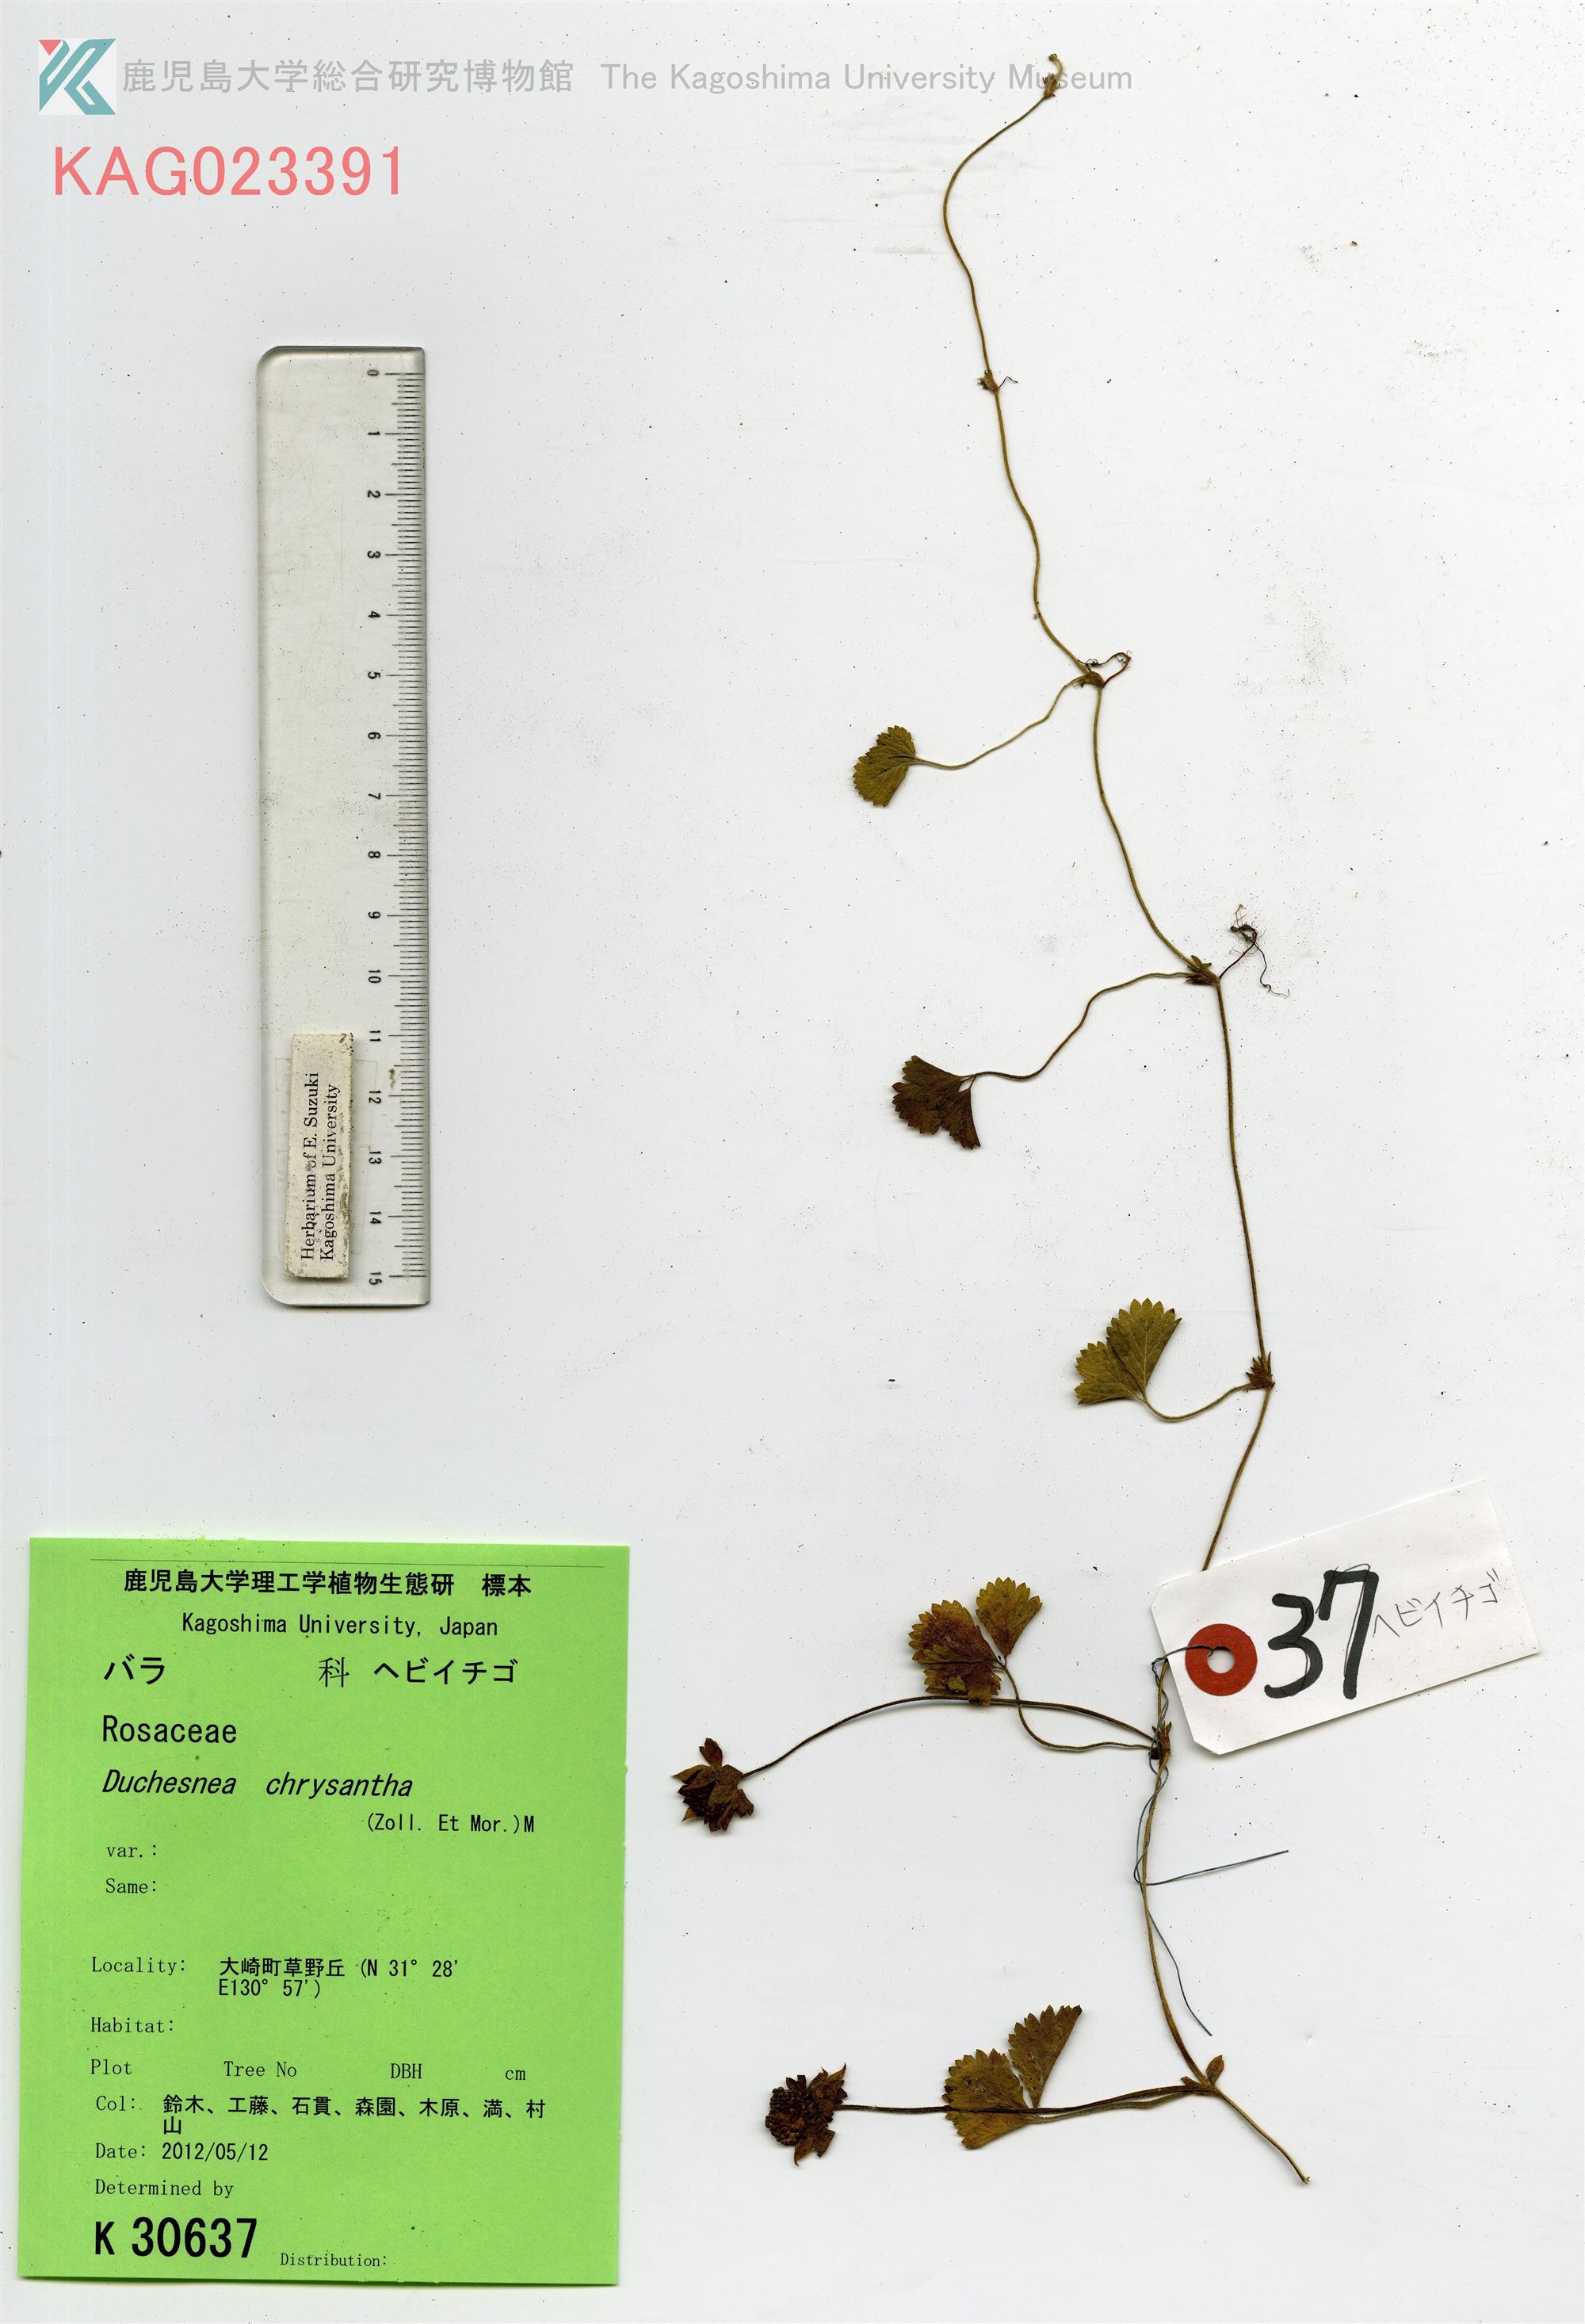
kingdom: Plantae
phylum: Tracheophyta
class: Magnoliopsida
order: Rosales
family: Rosaceae
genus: Potentilla
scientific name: Potentilla wallichiana
